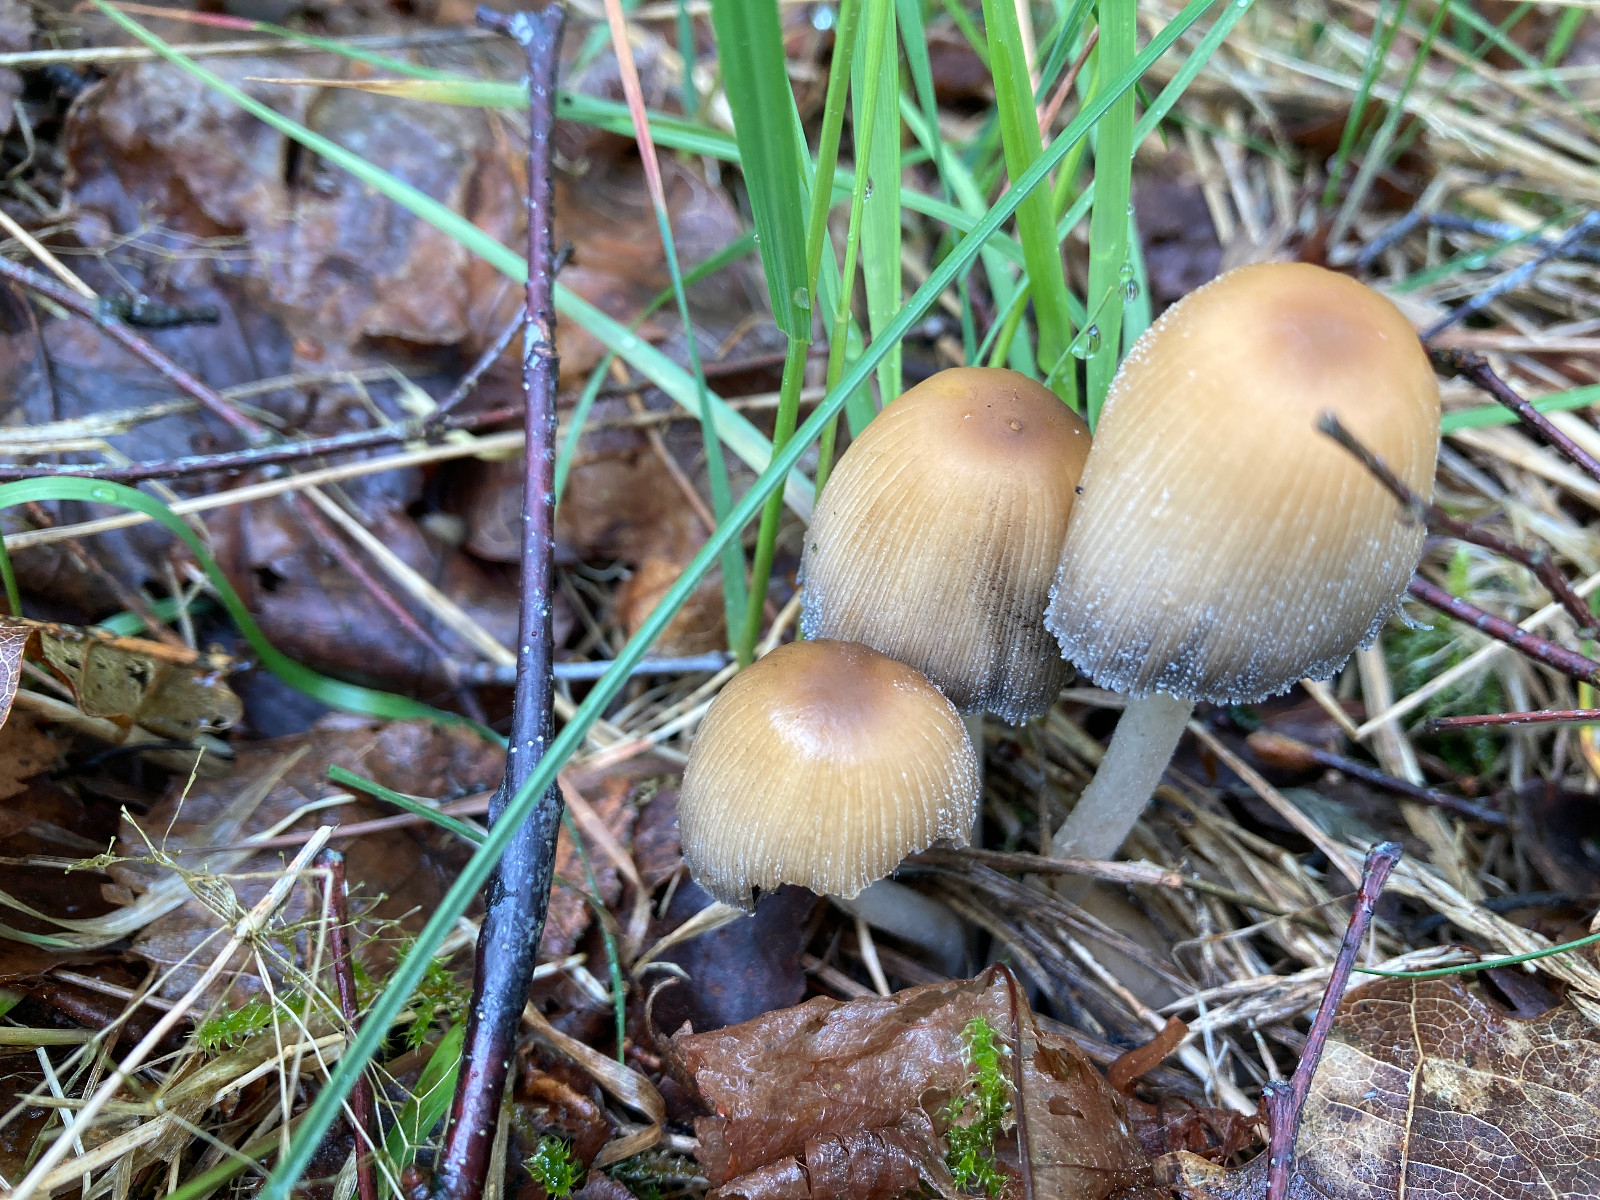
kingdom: Fungi
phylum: Basidiomycota
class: Agaricomycetes
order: Agaricales
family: Psathyrellaceae
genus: Coprinellus
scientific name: Coprinellus micaceus
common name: glimmer-blækhat
